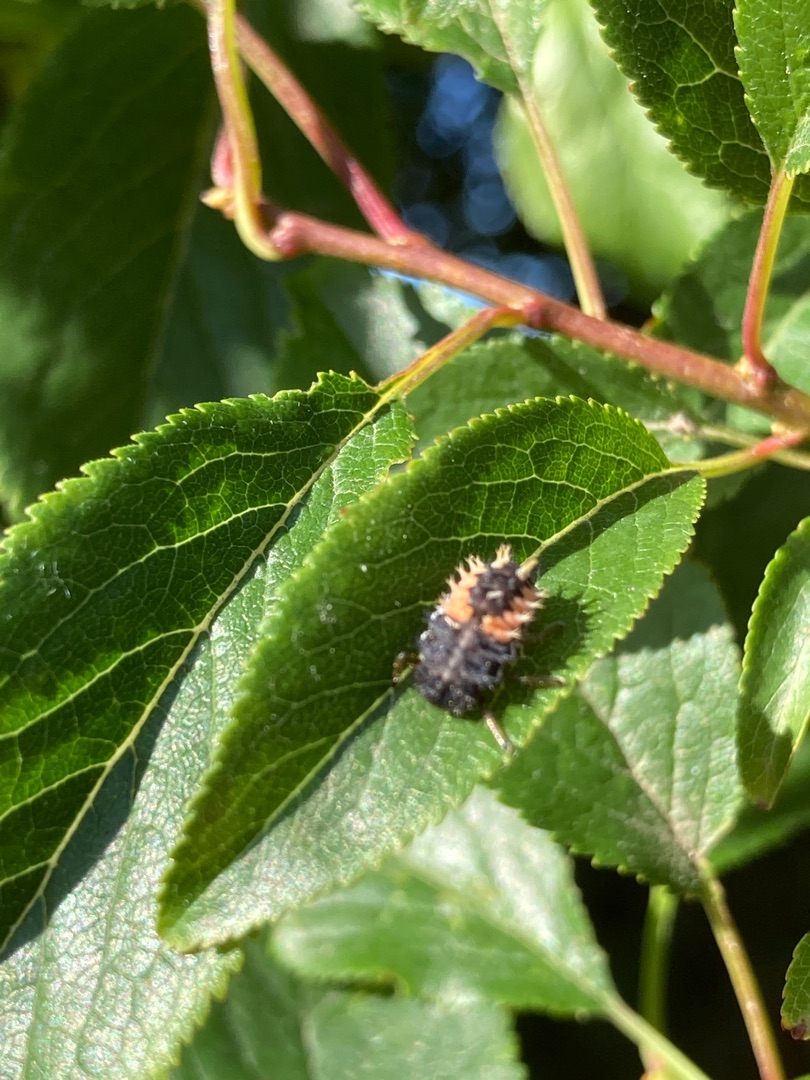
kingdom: Animalia
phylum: Arthropoda
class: Insecta
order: Coleoptera
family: Coccinellidae
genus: Harmonia
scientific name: Harmonia axyridis
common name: Harlekinmariehøne
